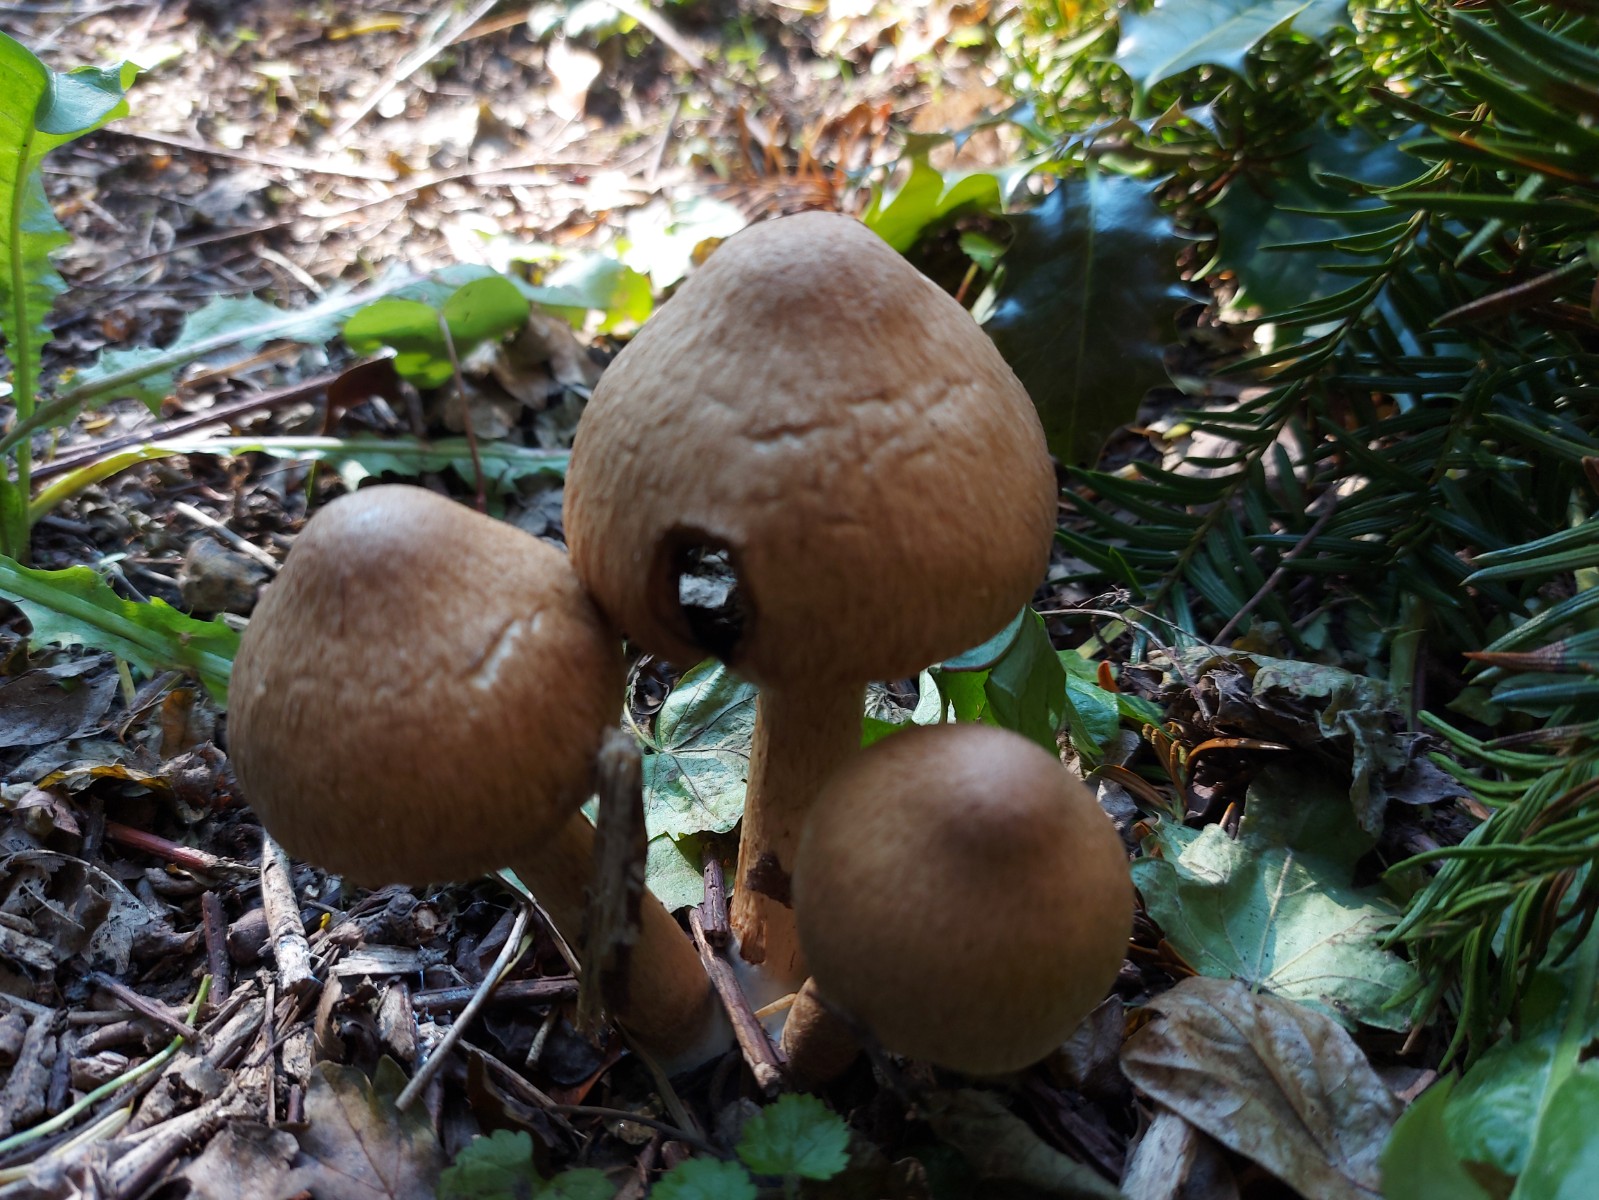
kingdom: Fungi
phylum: Basidiomycota
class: Agaricomycetes
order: Agaricales
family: Psathyrellaceae
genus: Lacrymaria
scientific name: Lacrymaria lacrymabunda
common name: grædende mørkhat
